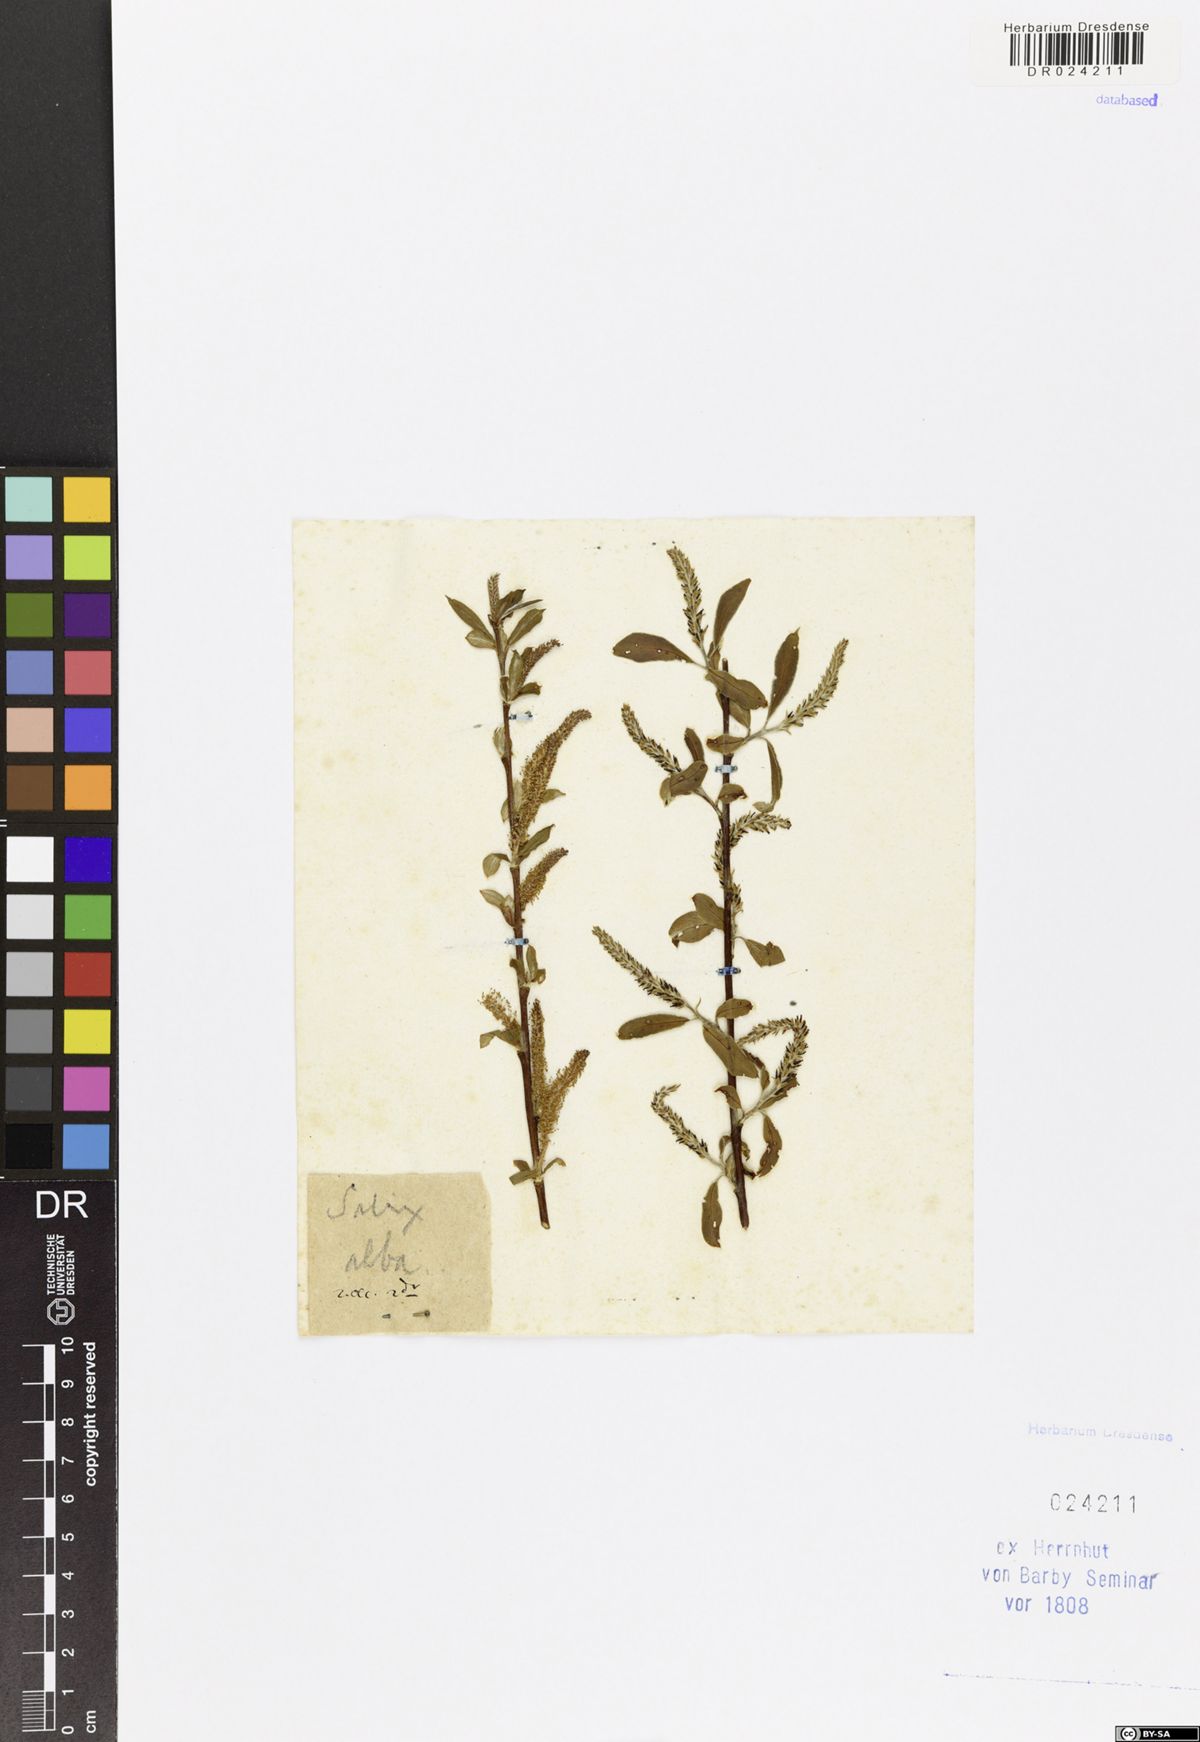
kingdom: Plantae
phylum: Tracheophyta
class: Magnoliopsida
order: Malpighiales
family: Salicaceae
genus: Salix
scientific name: Salix alba
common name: White willow
